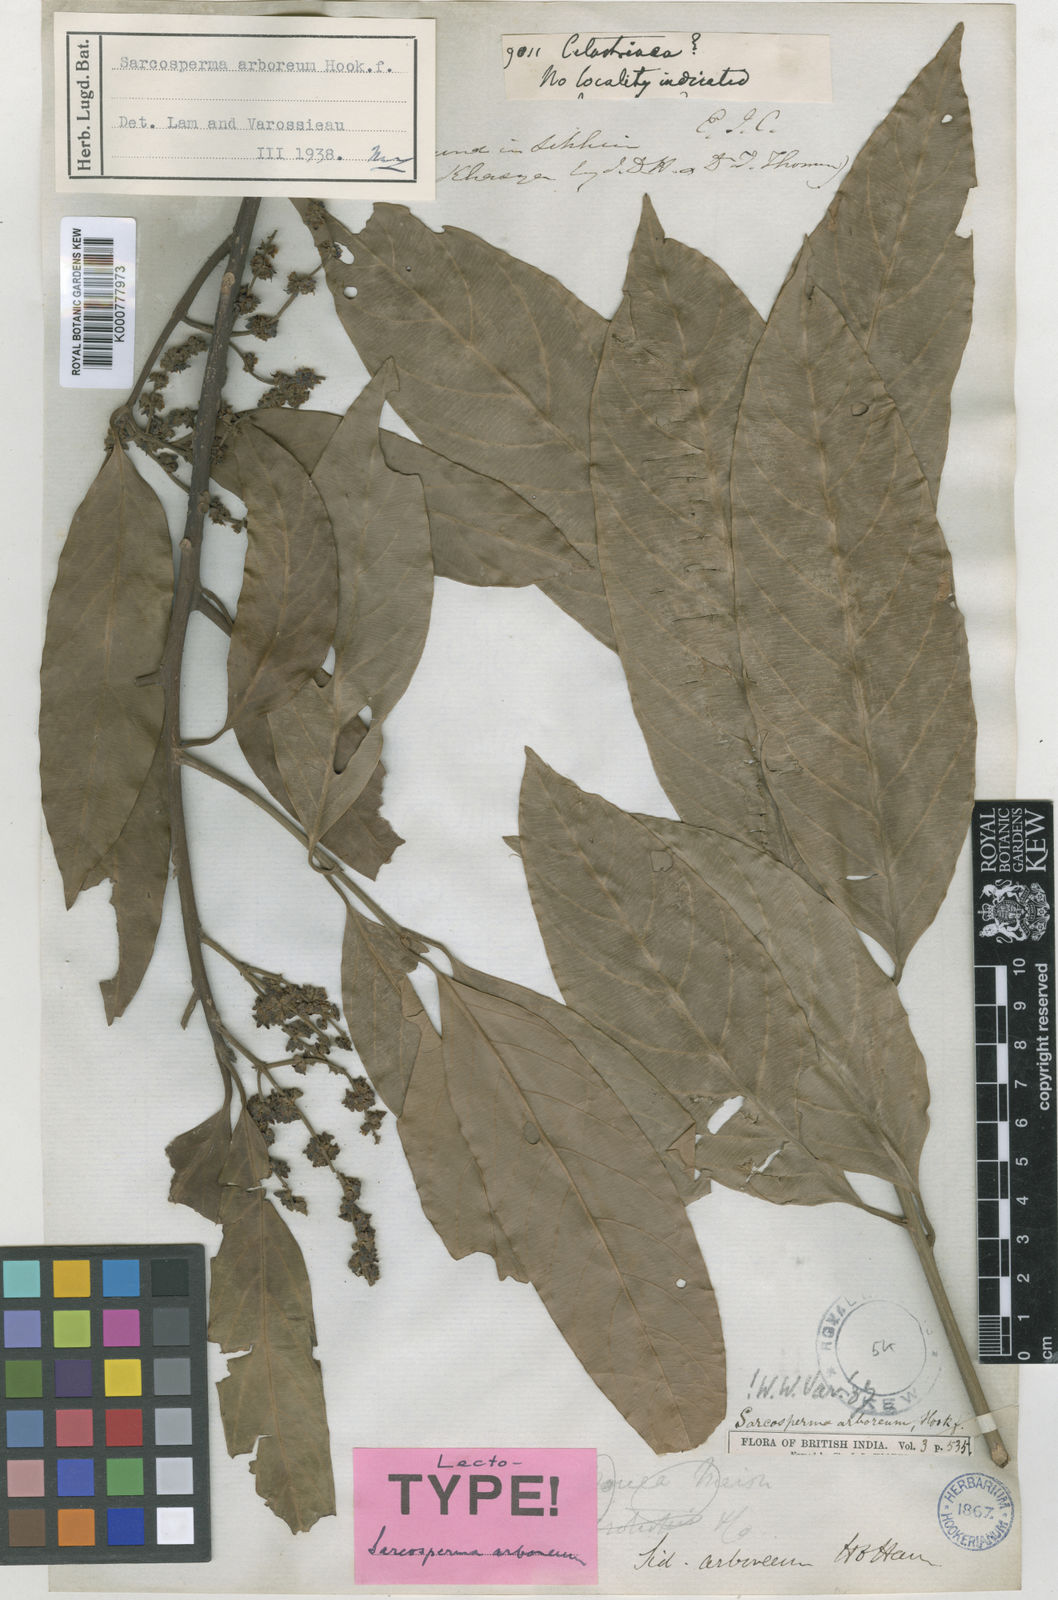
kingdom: Plantae
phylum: Tracheophyta
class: Magnoliopsida
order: Ericales
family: Sapotaceae
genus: Sarcosperma
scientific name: Sarcosperma arboreum
